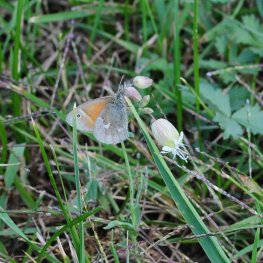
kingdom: Animalia
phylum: Arthropoda
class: Insecta
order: Lepidoptera
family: Nymphalidae
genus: Coenonympha
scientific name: Coenonympha tullia
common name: Large Heath
